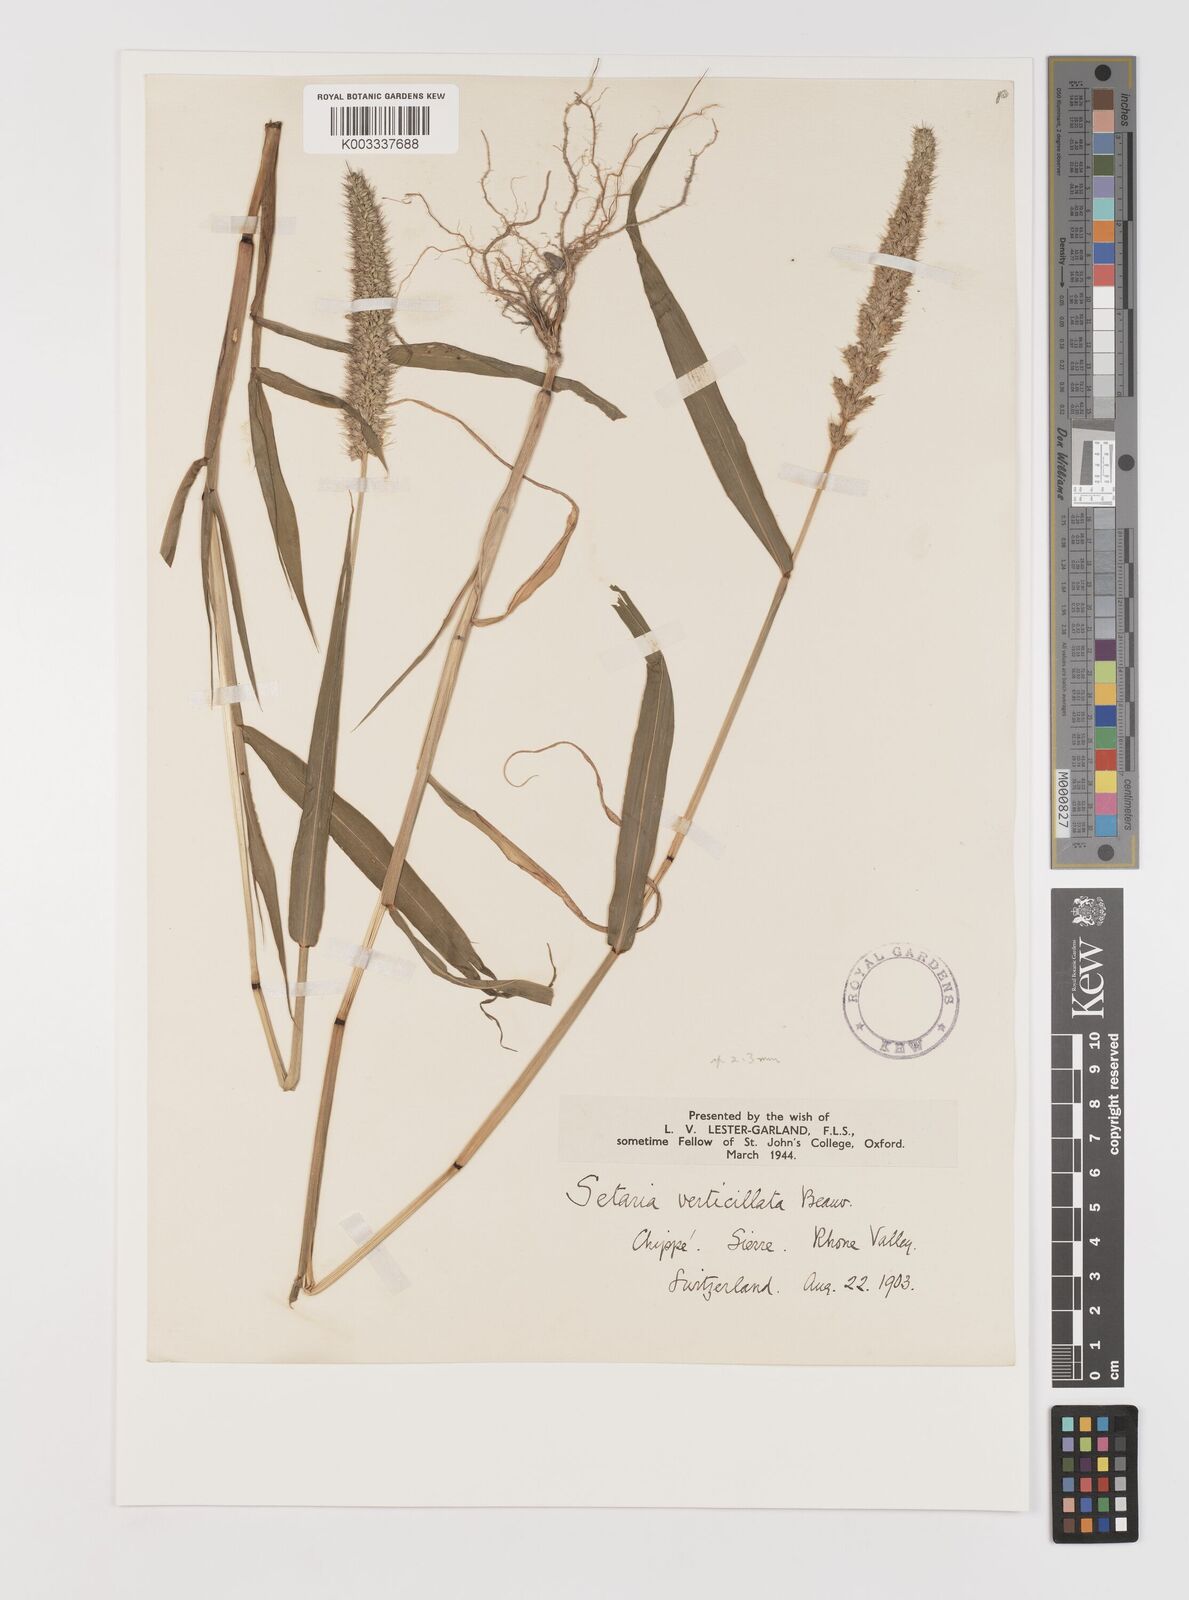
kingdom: Plantae
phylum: Tracheophyta
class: Liliopsida
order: Poales
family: Poaceae
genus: Setaria
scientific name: Setaria verticillata
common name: Hooked bristlegrass
